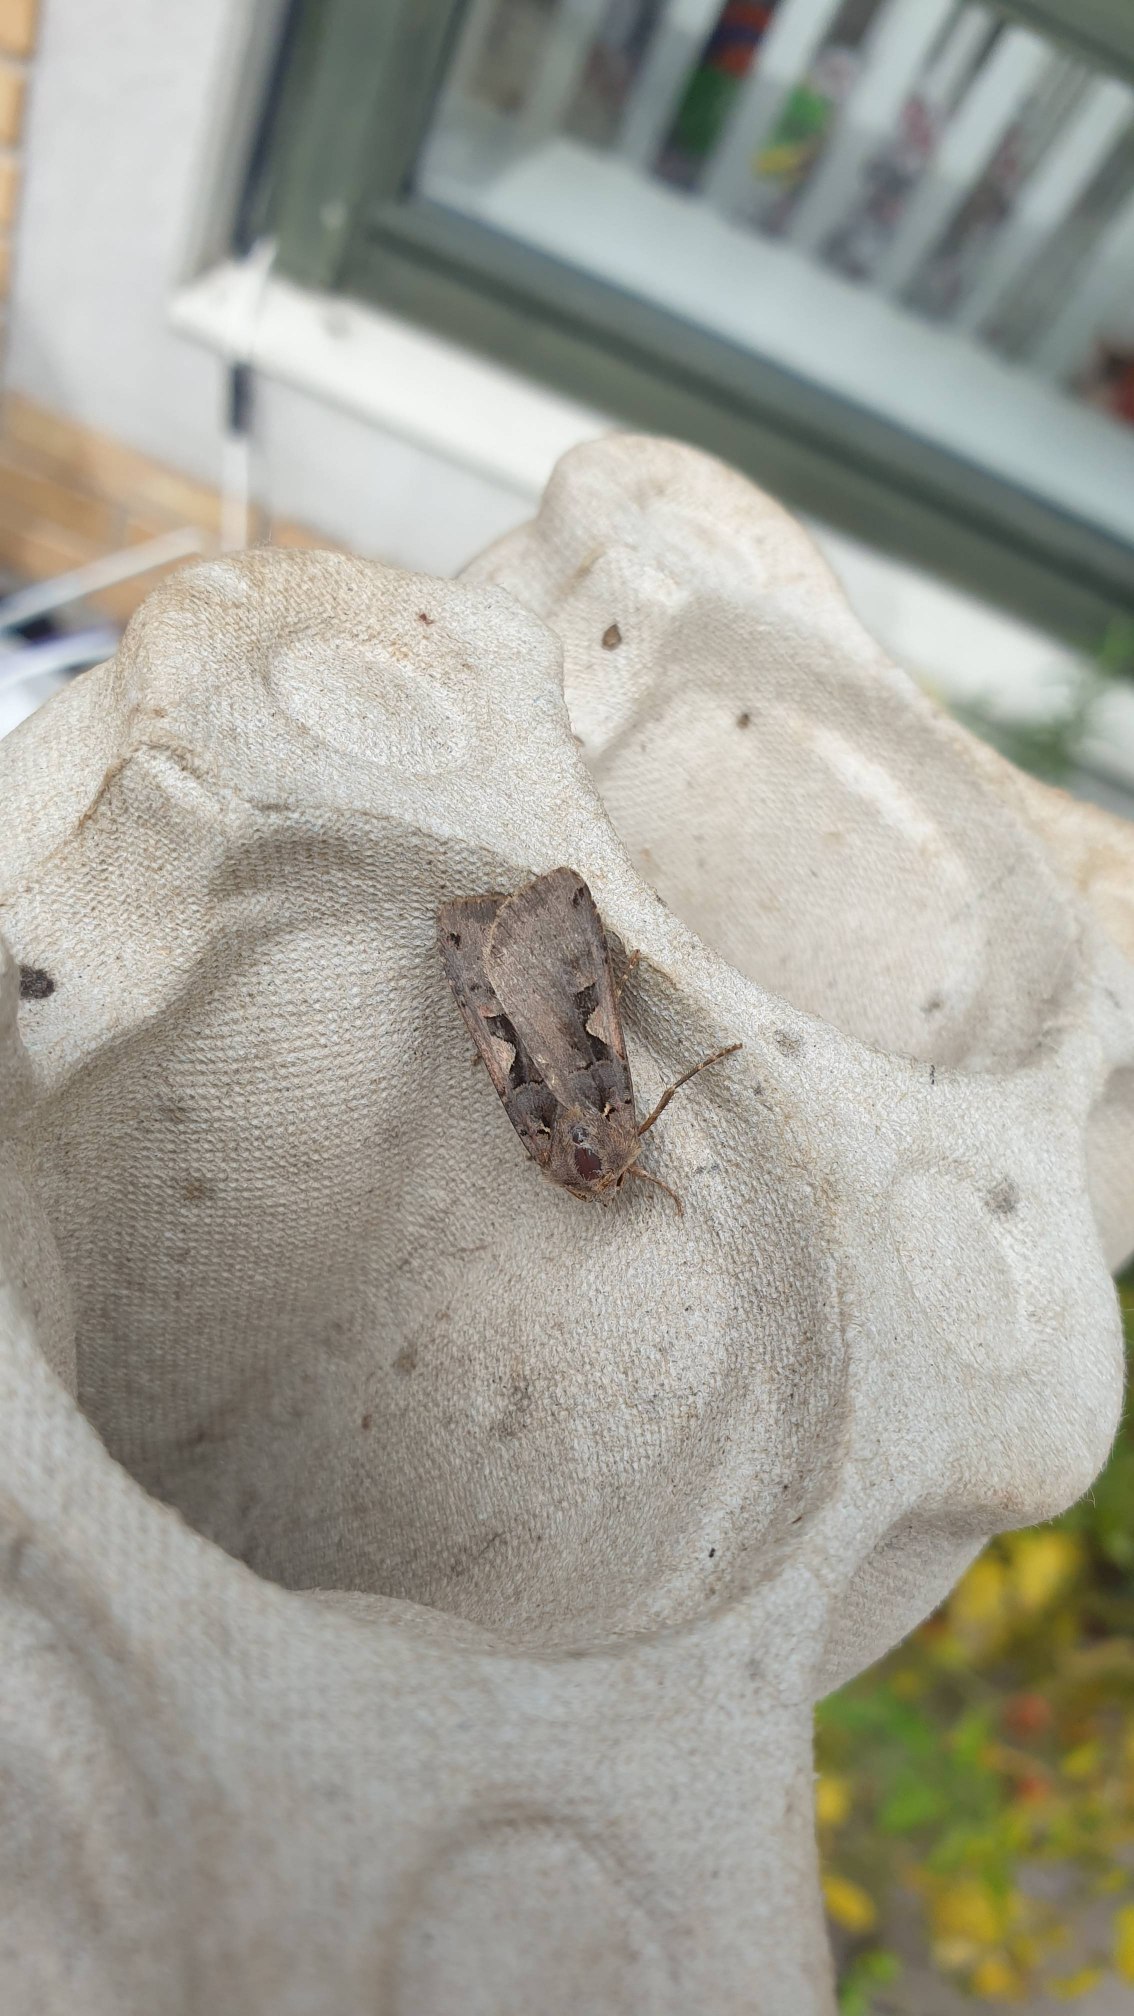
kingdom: Animalia
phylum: Arthropoda
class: Insecta
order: Lepidoptera
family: Noctuidae
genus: Xestia
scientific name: Xestia c-nigrum
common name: Det sorte c
